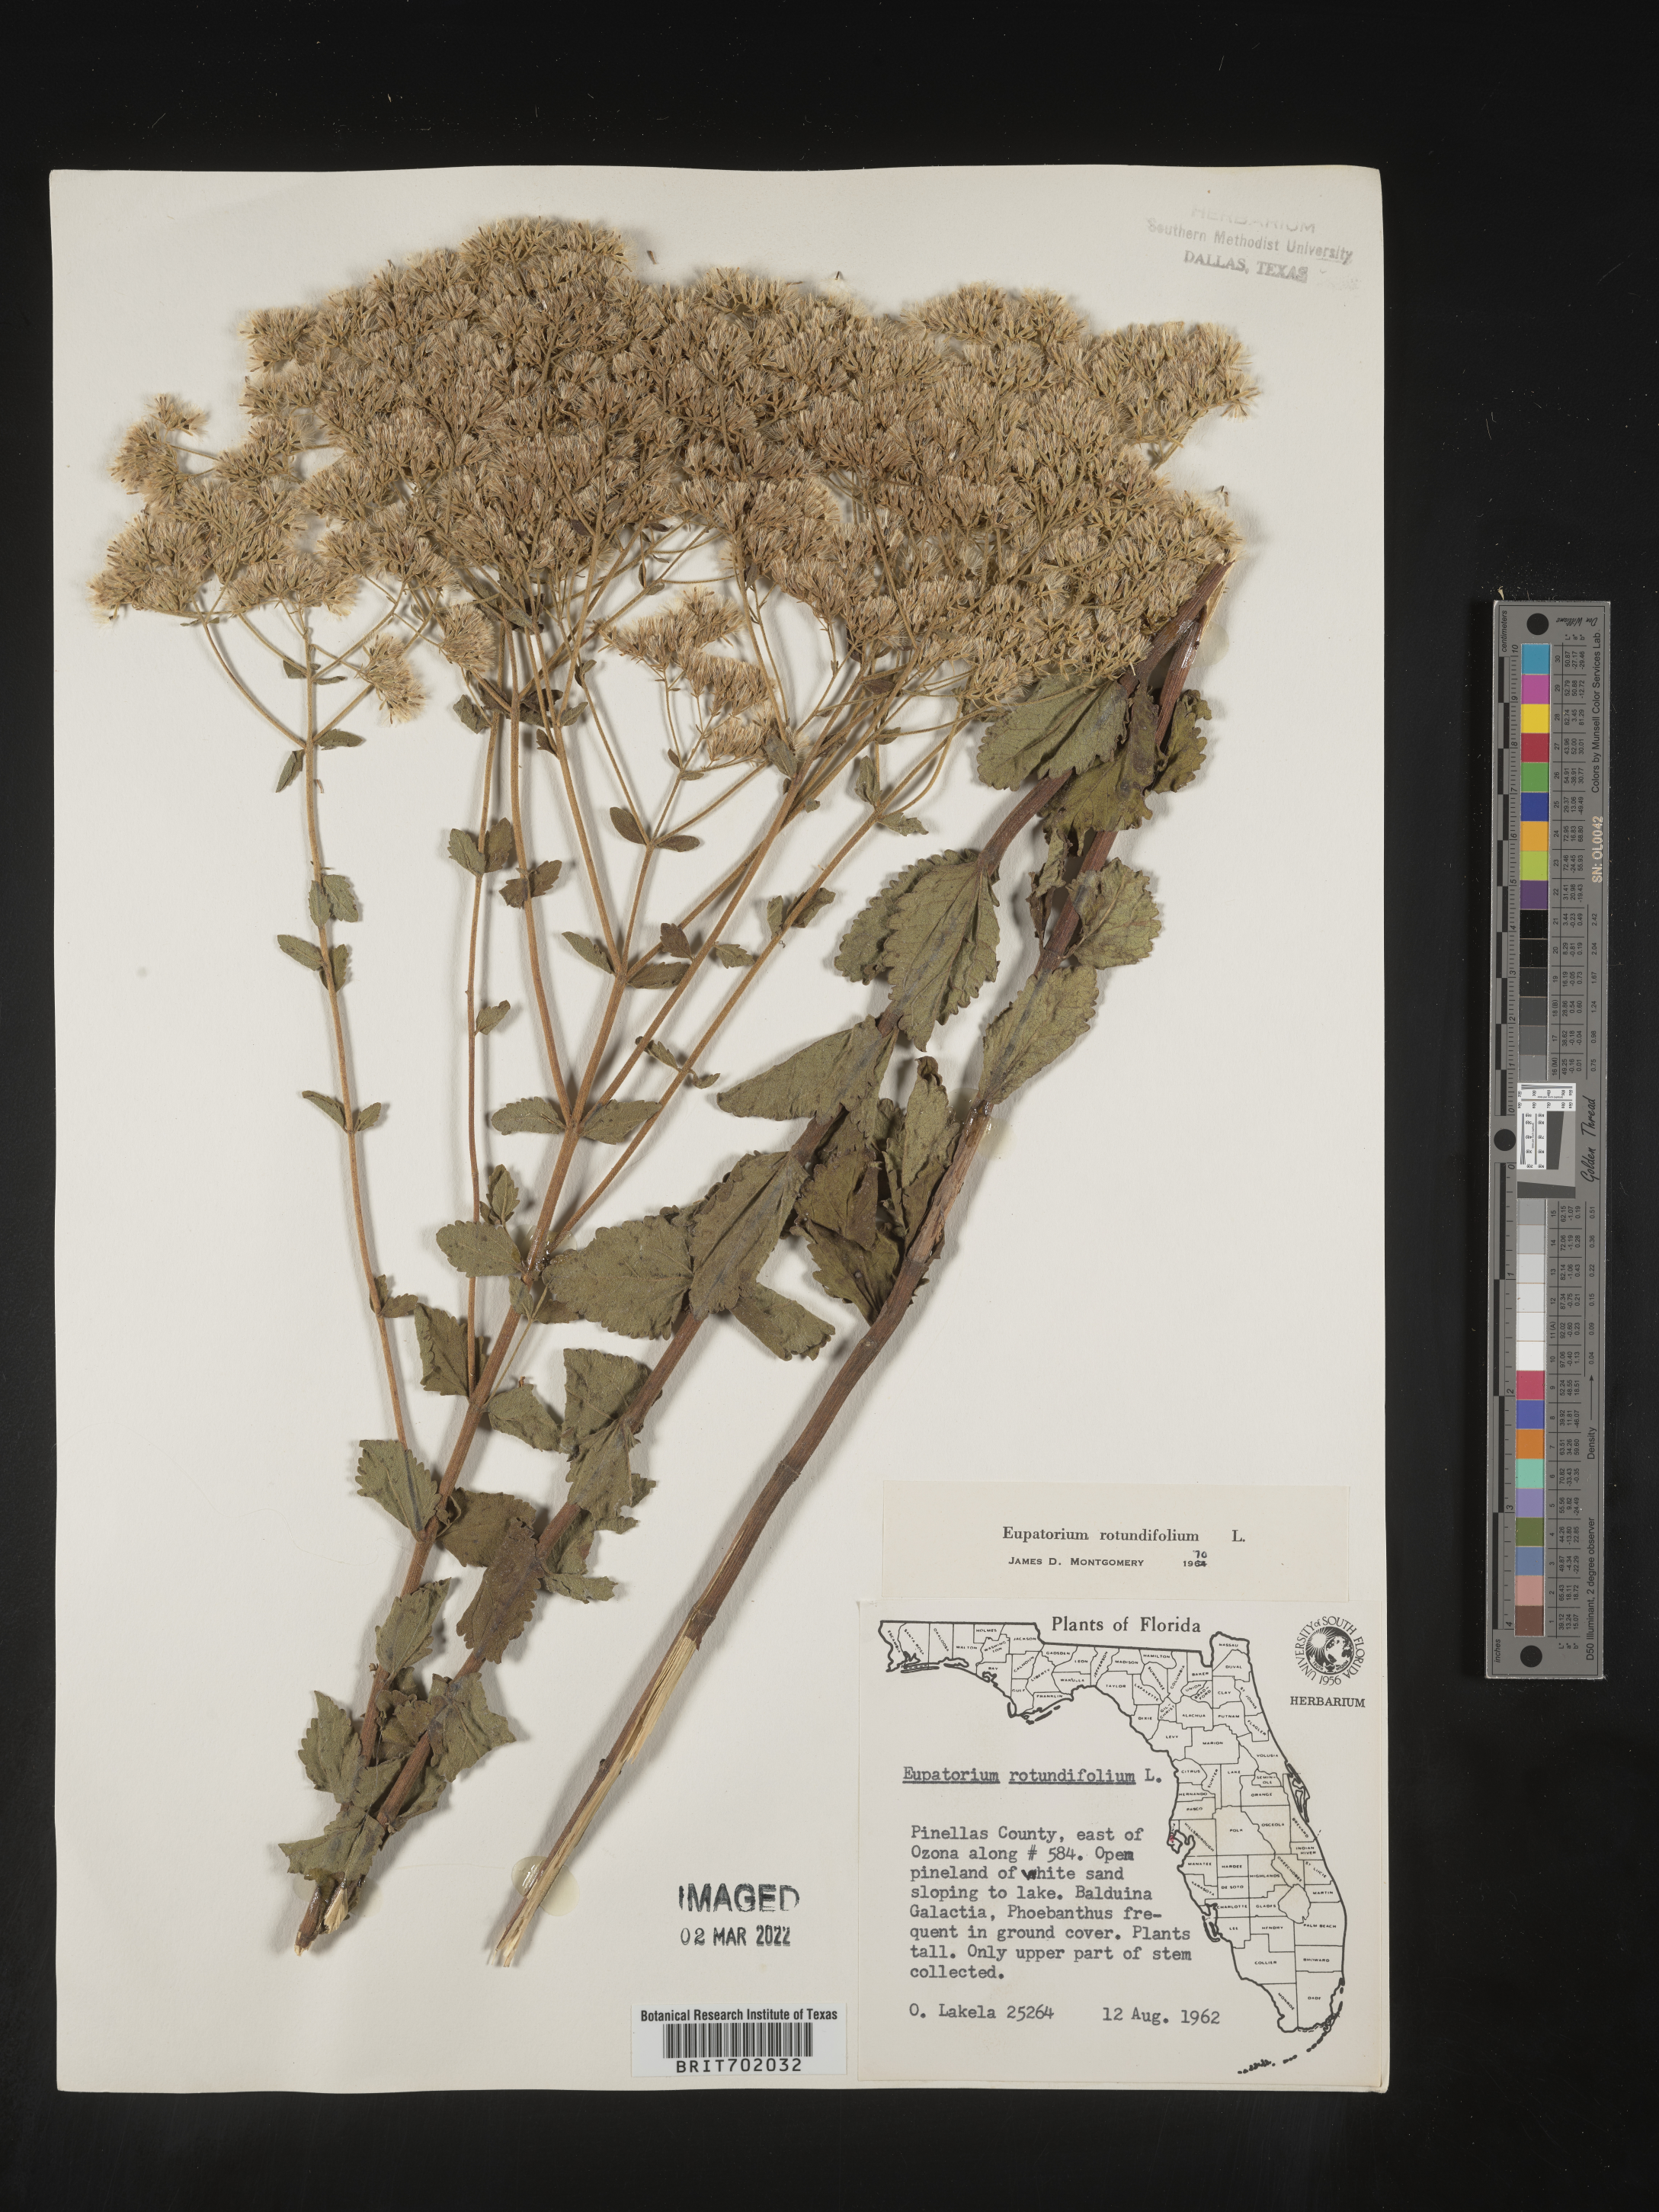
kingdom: Plantae
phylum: Tracheophyta
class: Magnoliopsida
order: Asterales
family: Asteraceae
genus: Eupatorium
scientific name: Eupatorium rotundifolium
